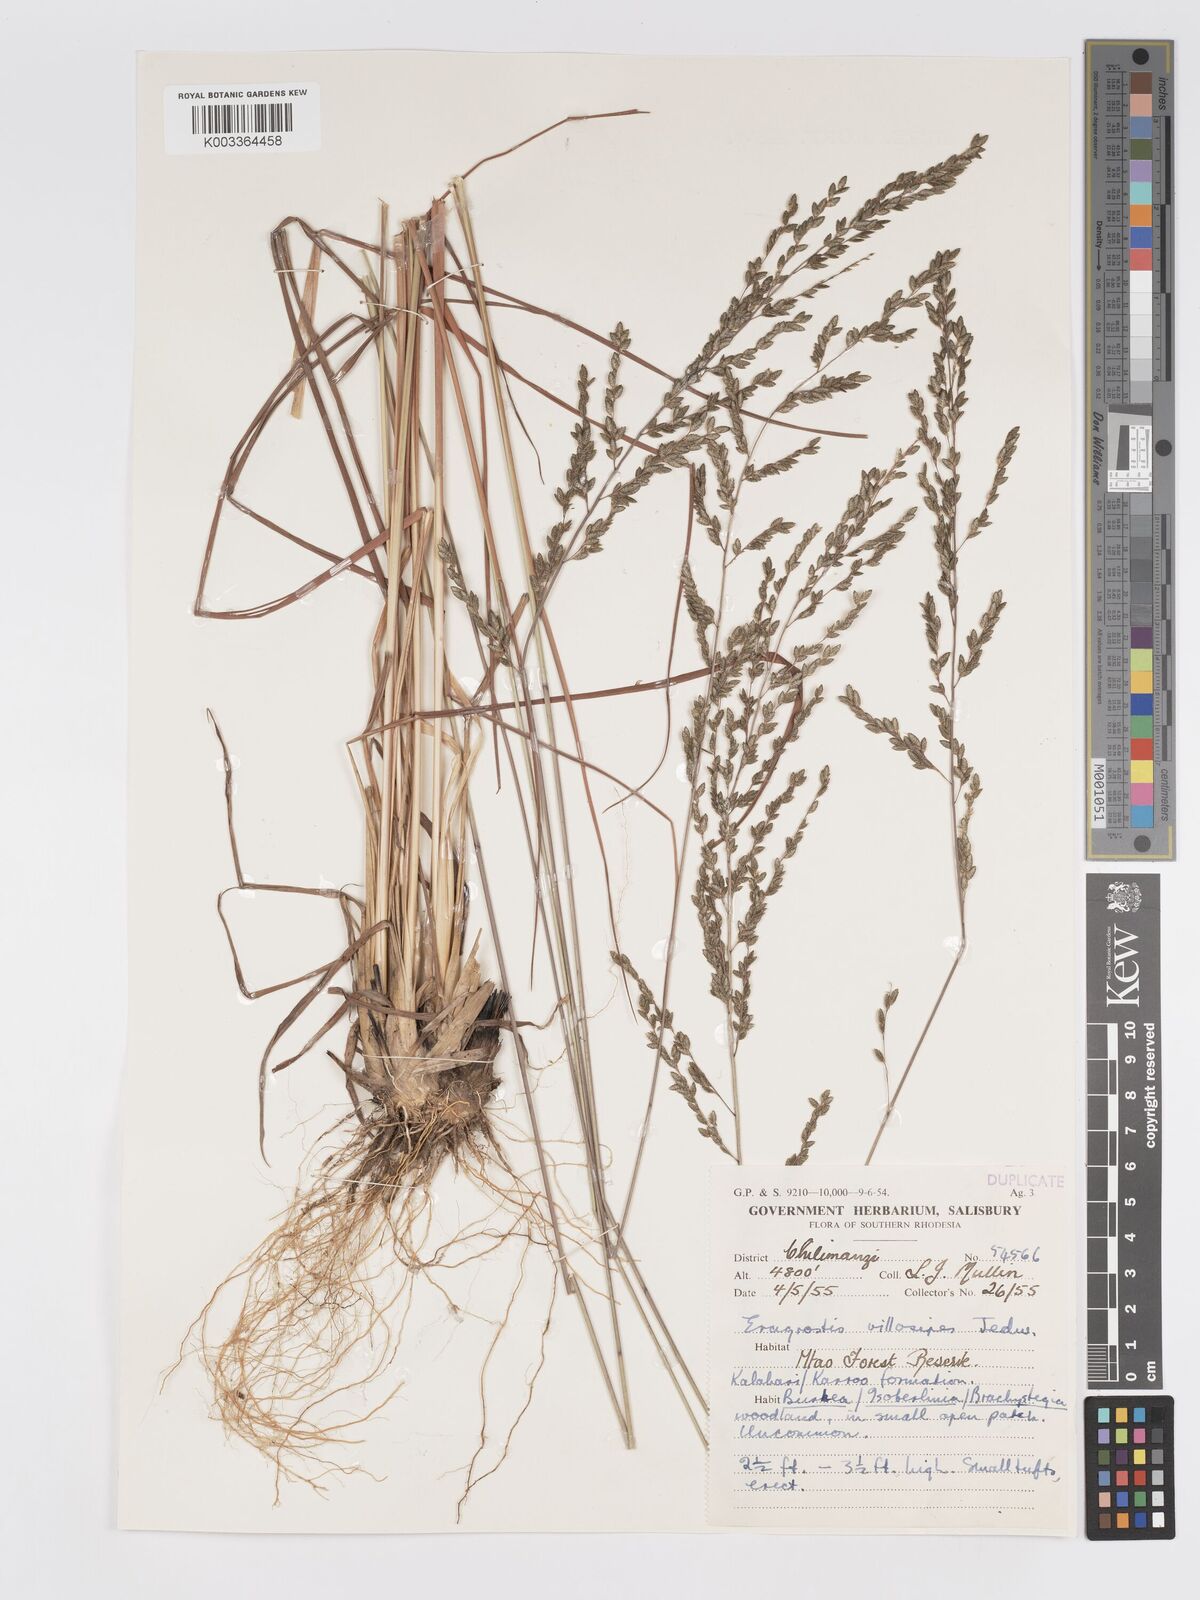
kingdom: Plantae
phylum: Tracheophyta
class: Liliopsida
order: Poales
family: Poaceae
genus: Eragrostis
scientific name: Eragrostis sclerantha
